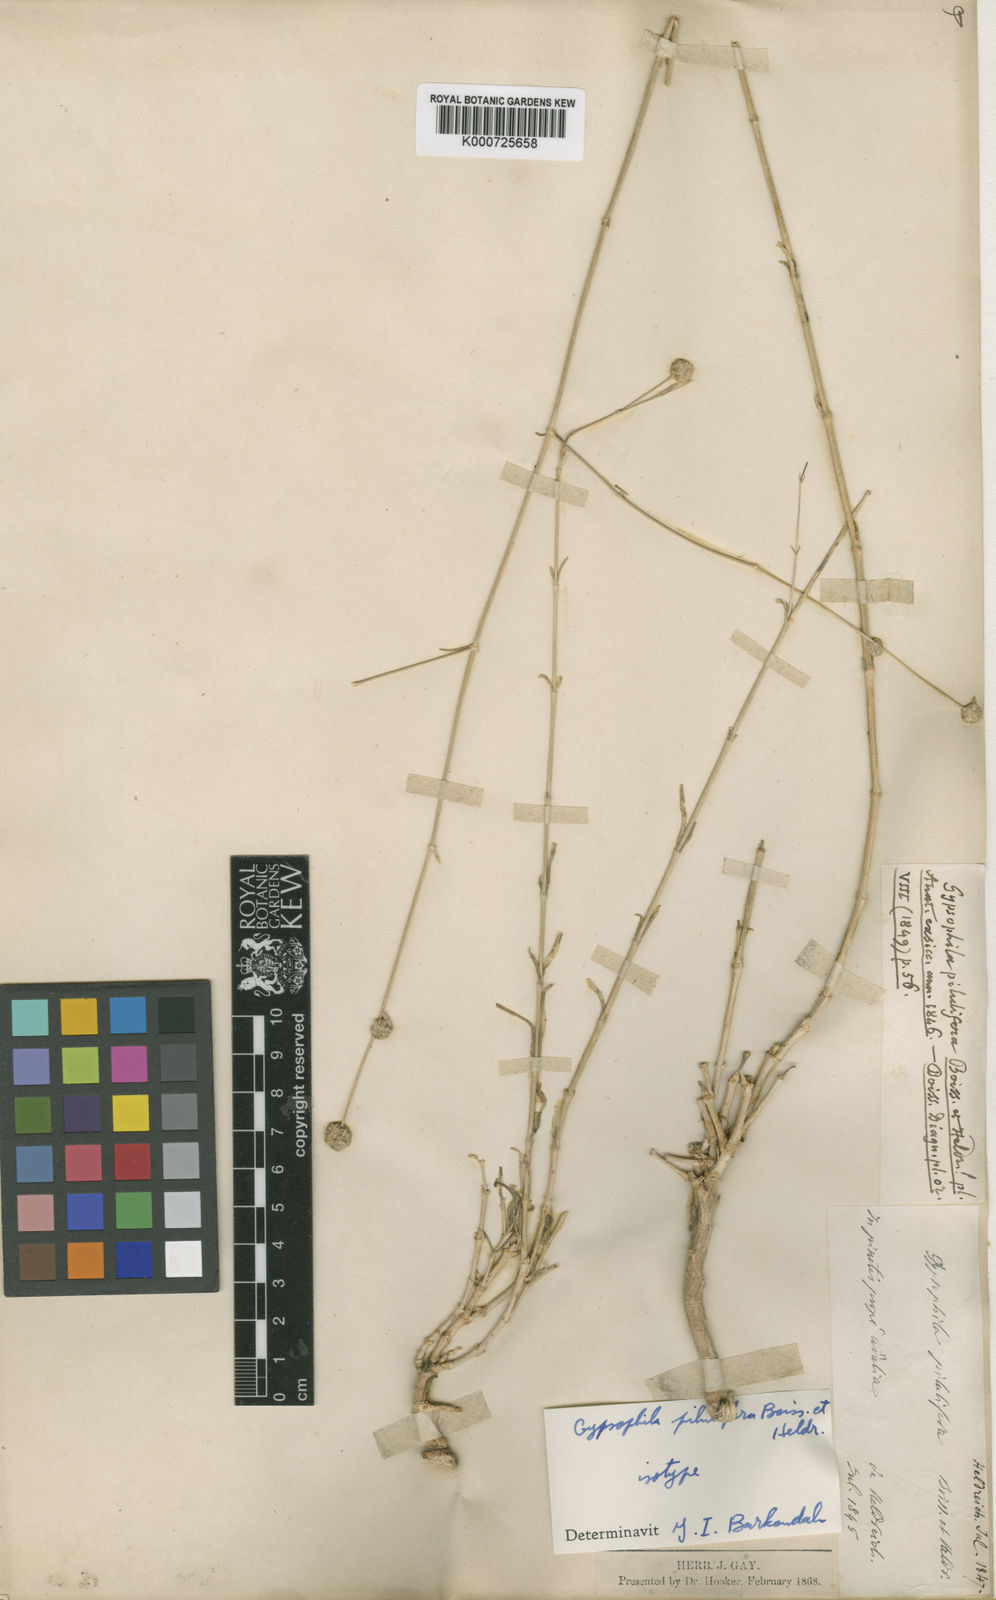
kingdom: Plantae
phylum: Tracheophyta
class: Magnoliopsida
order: Caryophyllales
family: Caryophyllaceae
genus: Gypsophila
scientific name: Gypsophila pilulifera
